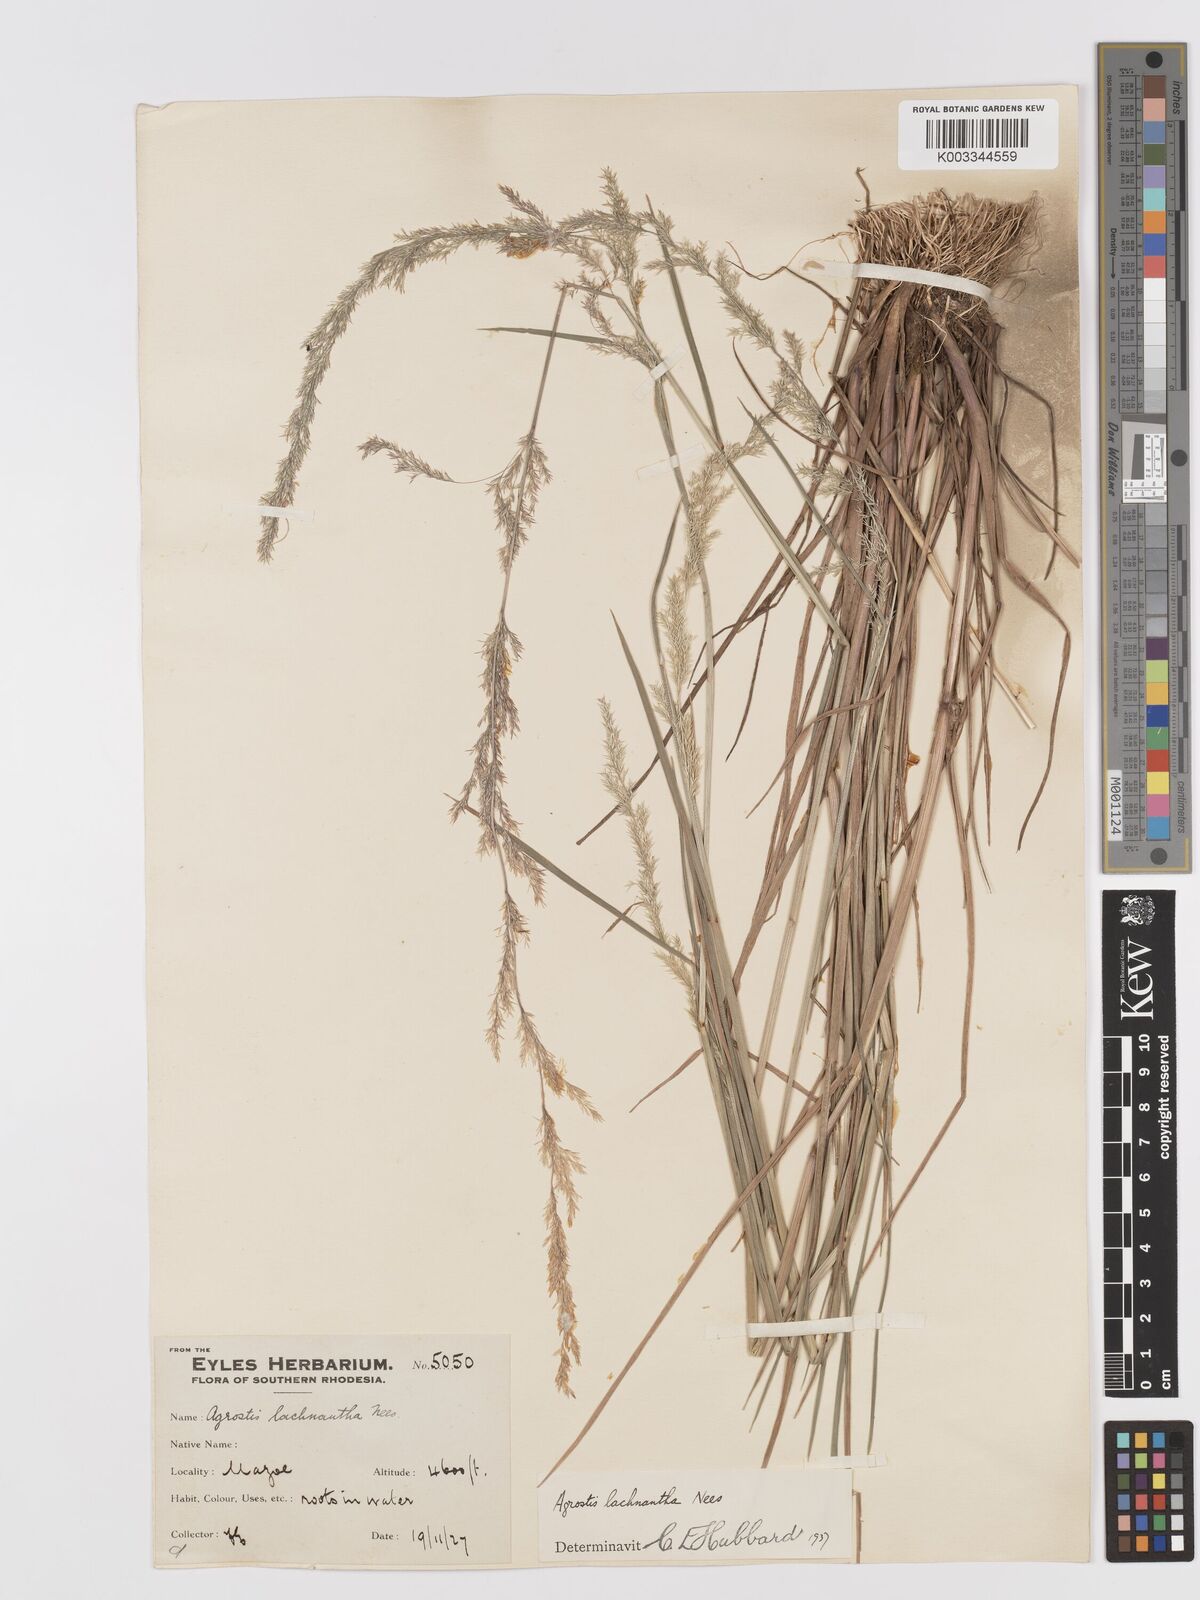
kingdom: Plantae
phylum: Tracheophyta
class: Liliopsida
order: Poales
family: Poaceae
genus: Lachnagrostis
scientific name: Lachnagrostis lachnantha
